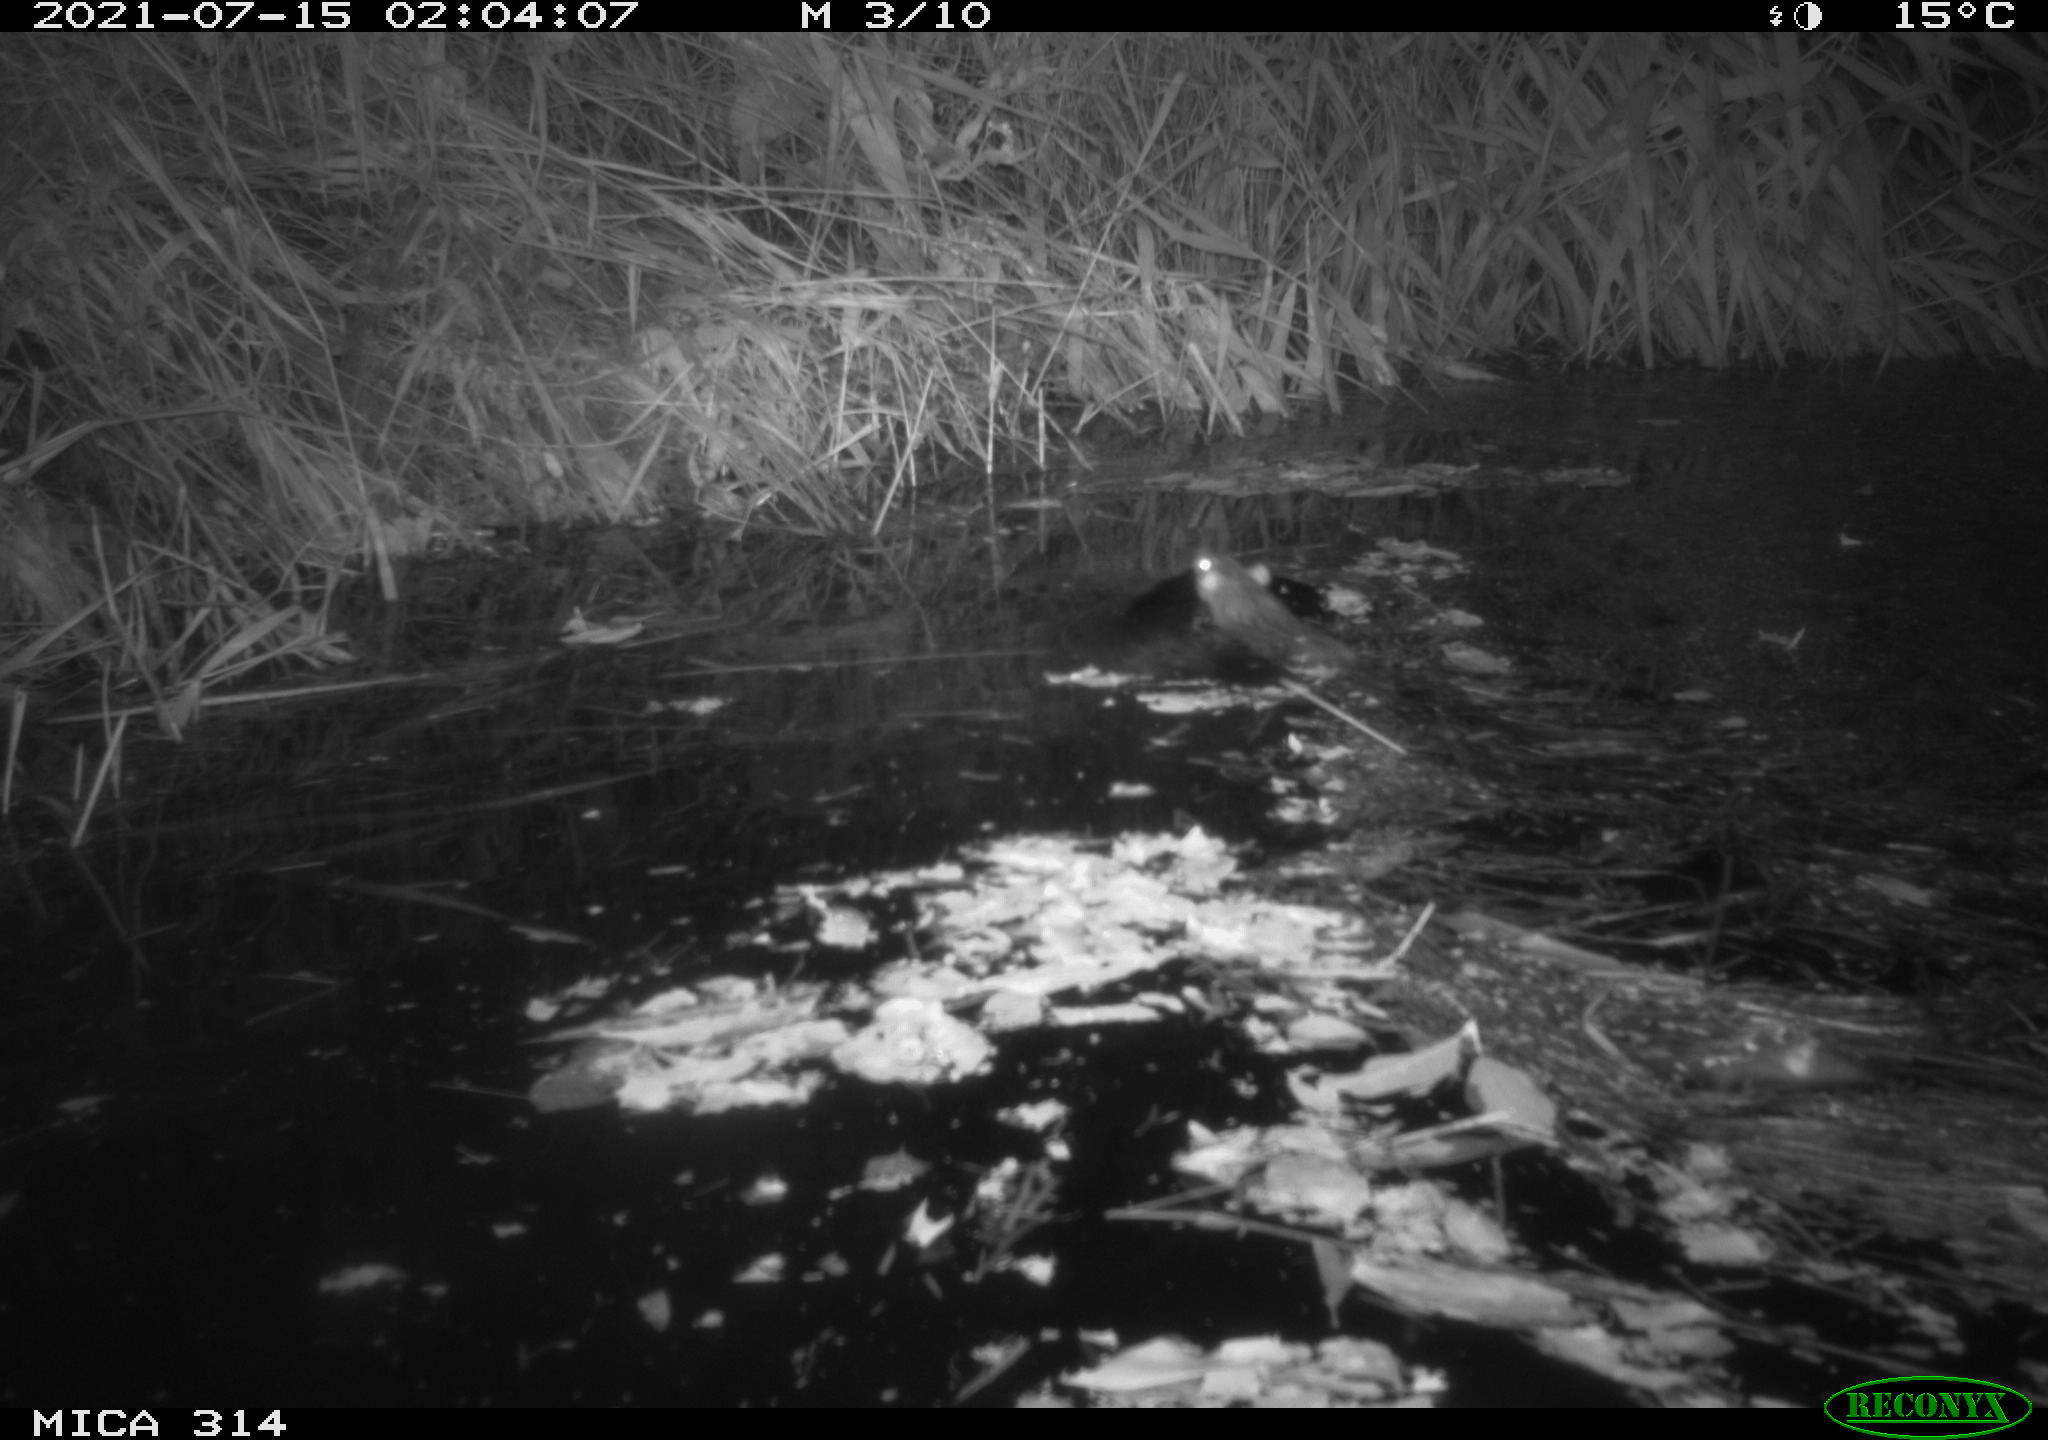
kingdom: Animalia
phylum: Chordata
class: Mammalia
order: Rodentia
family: Muridae
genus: Rattus
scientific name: Rattus norvegicus
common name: Brown rat
